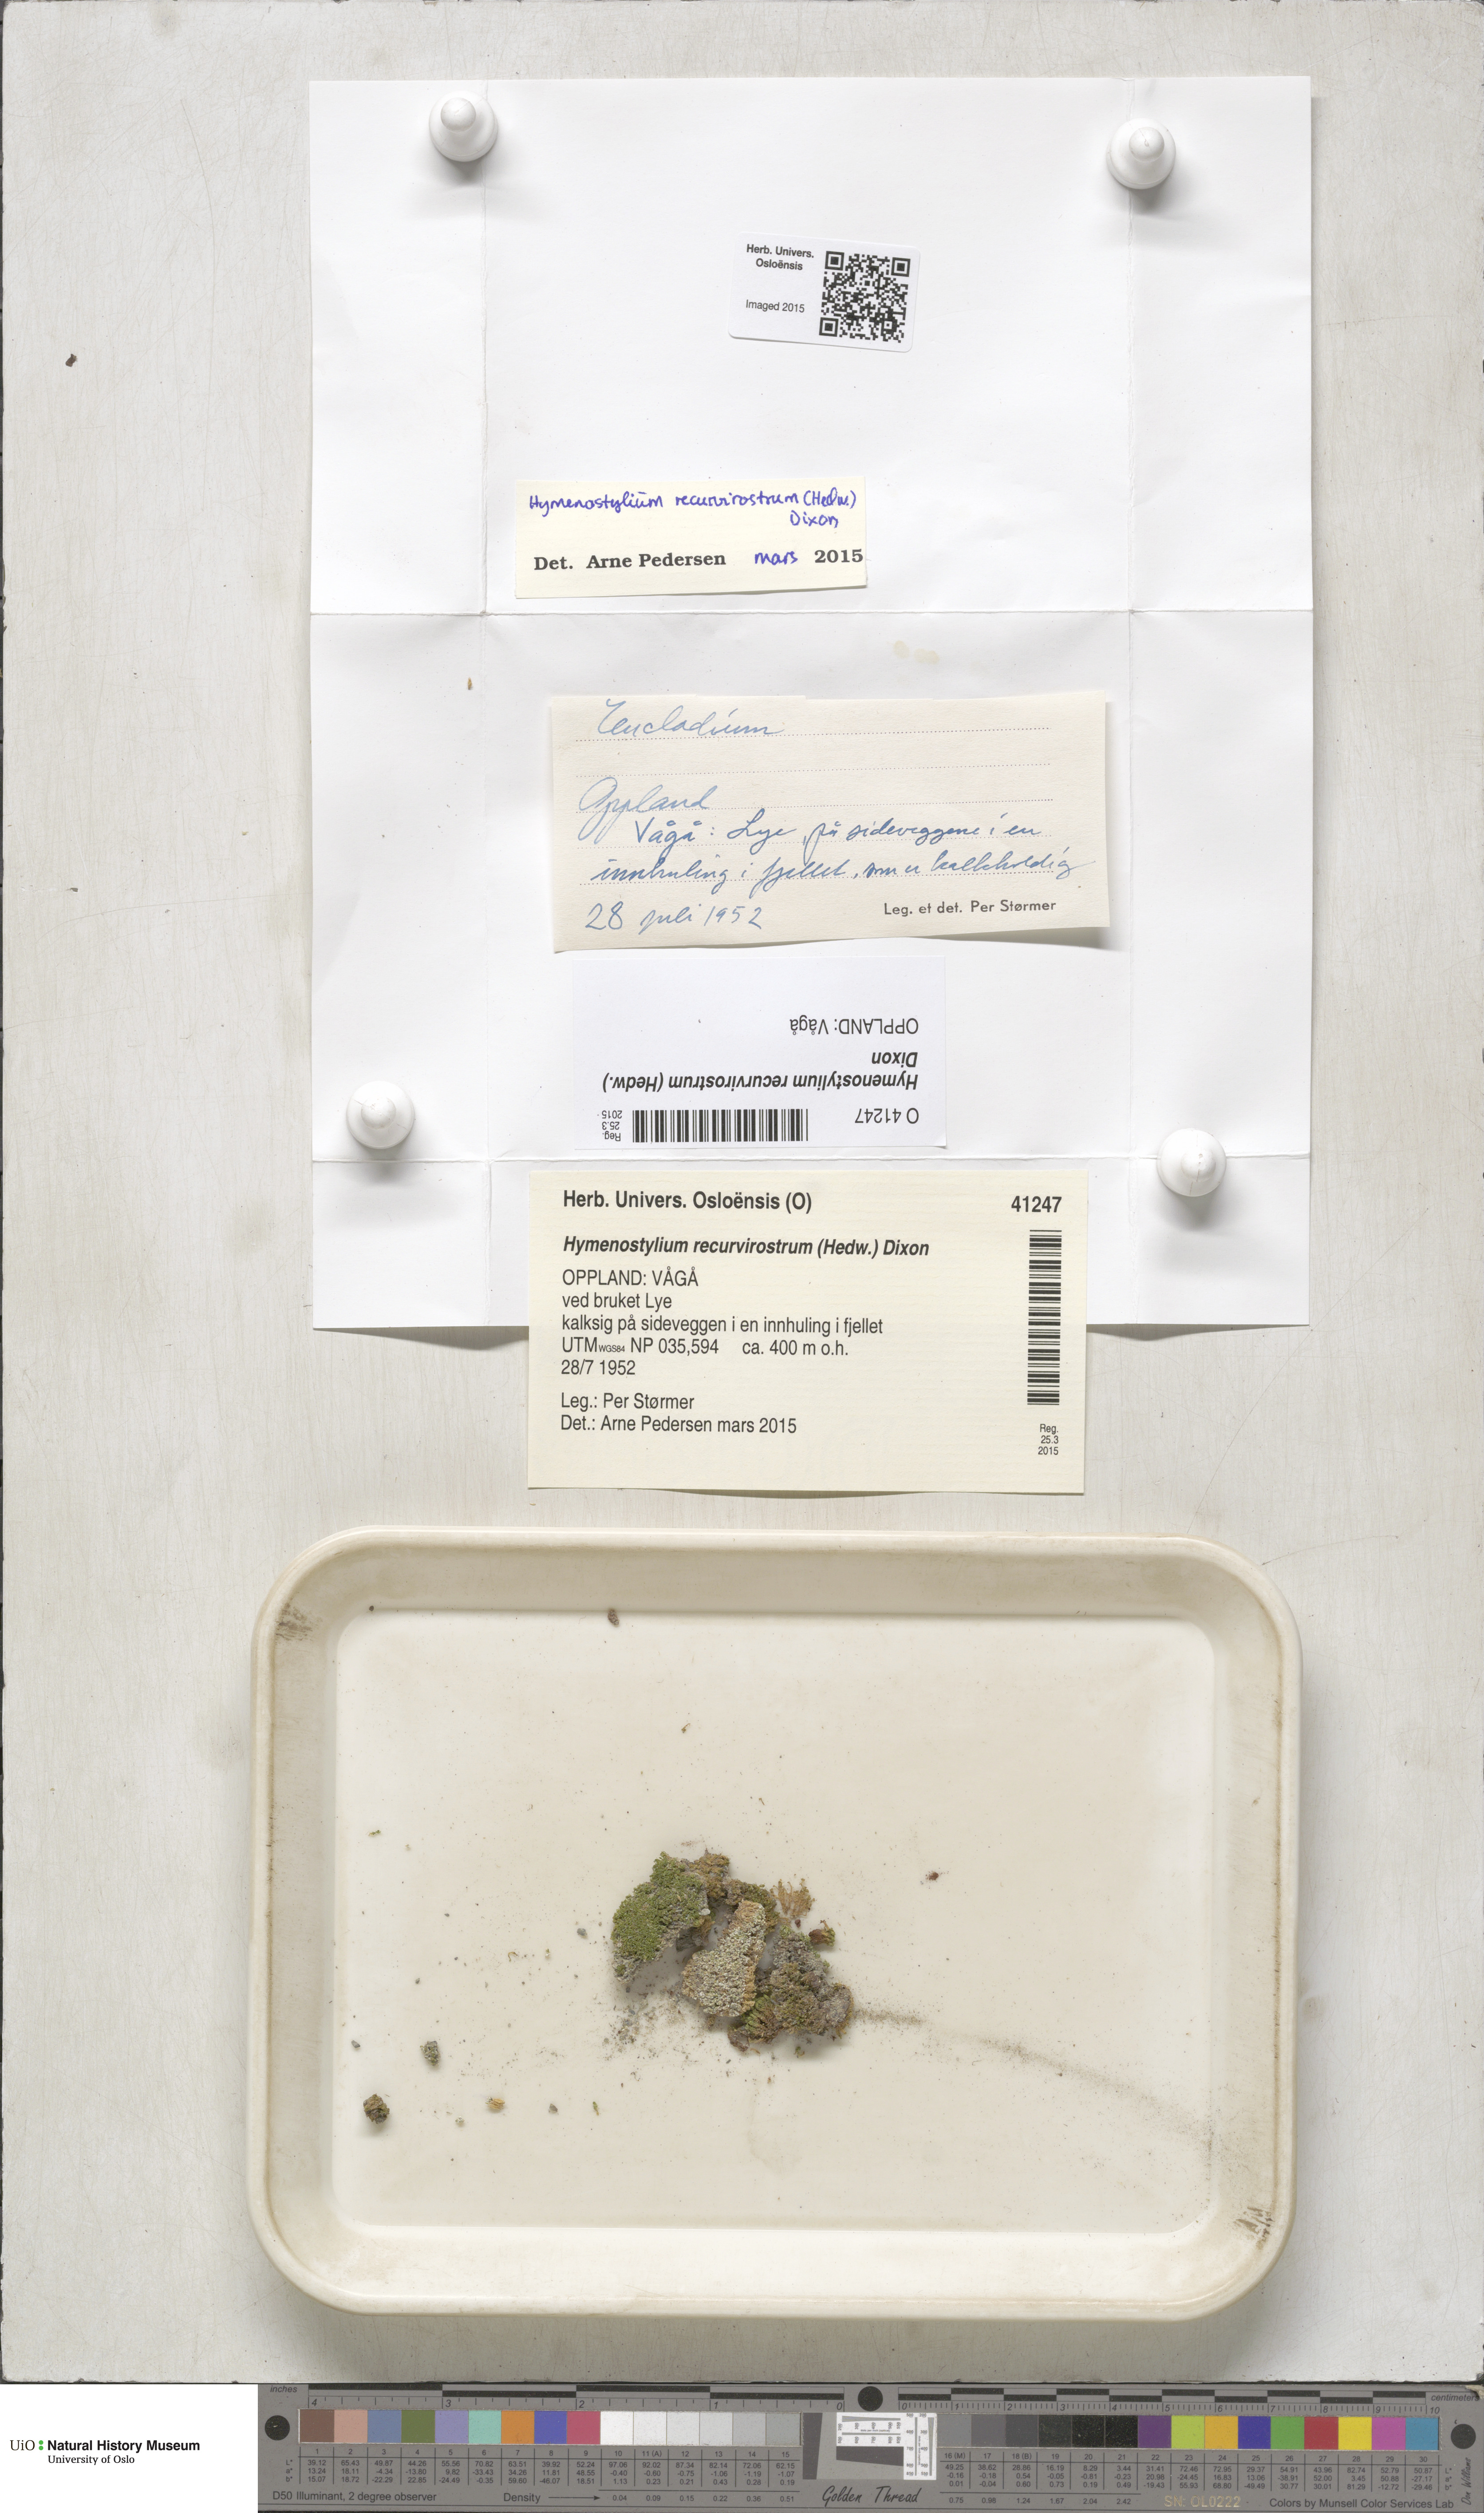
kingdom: Plantae
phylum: Bryophyta
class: Bryopsida
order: Pottiales
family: Pottiaceae
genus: Hymenostylium
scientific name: Hymenostylium recurvirostrum
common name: Hook-beak tufa-moss
